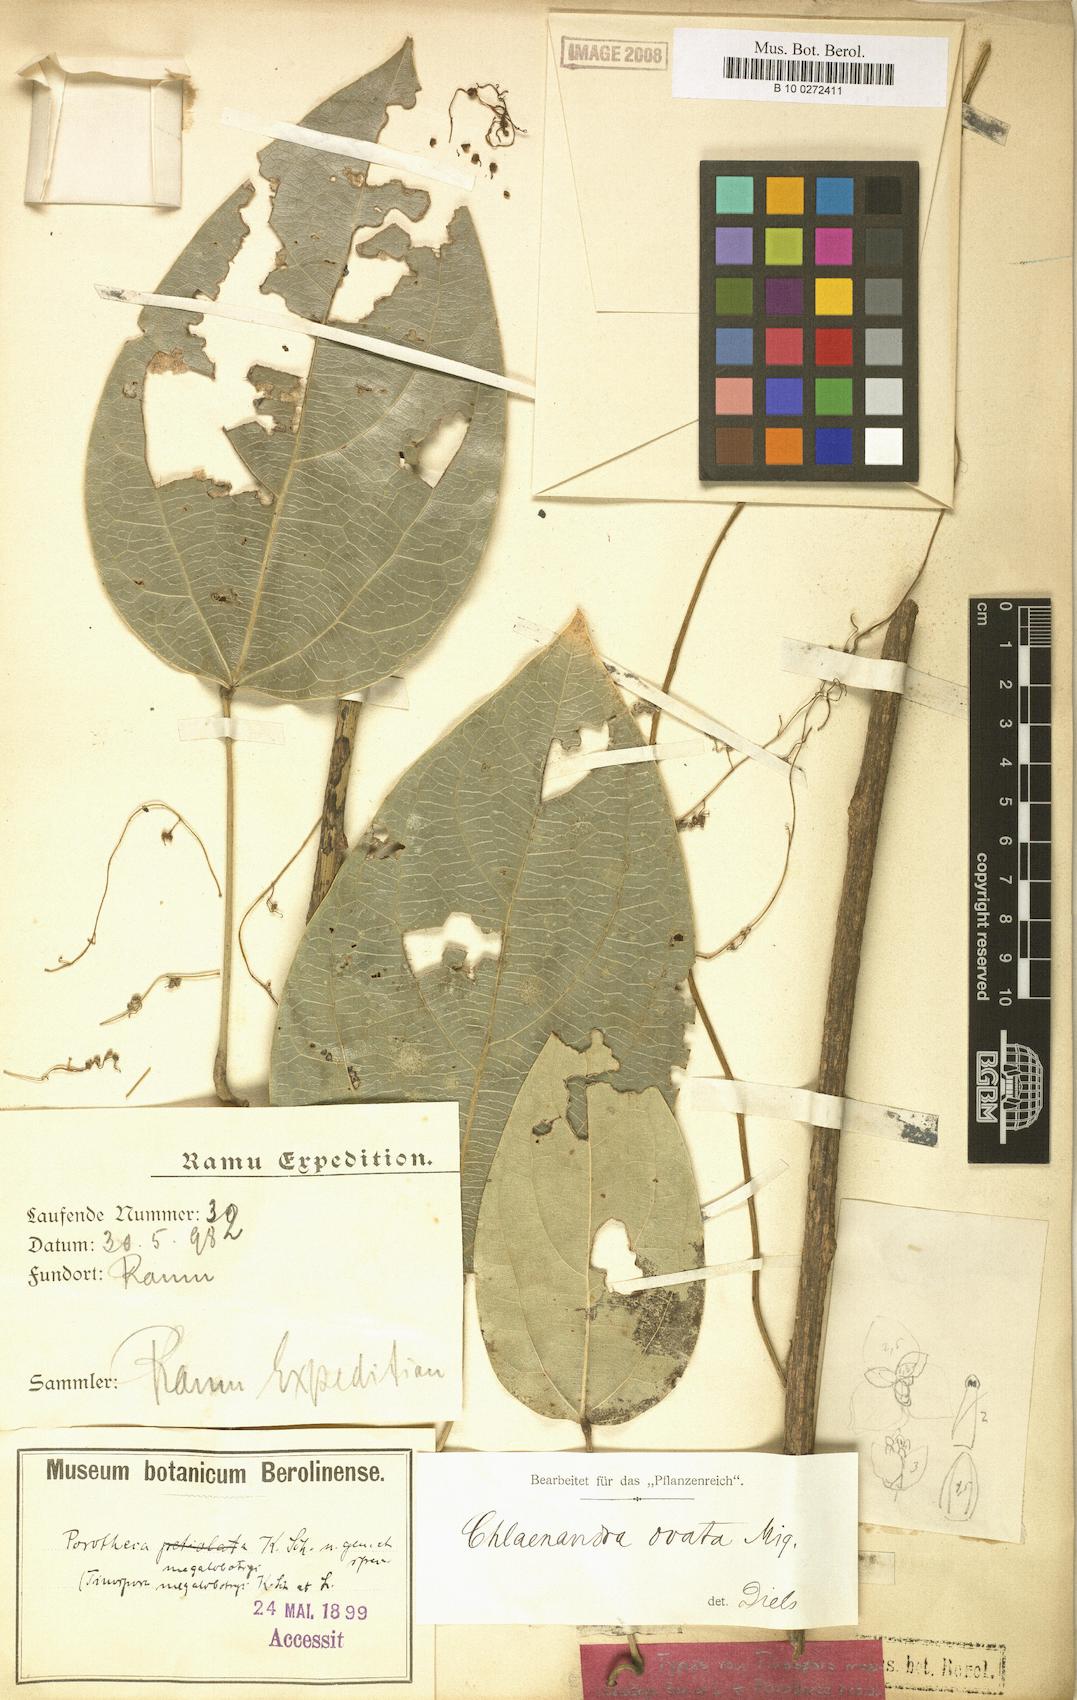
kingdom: Plantae
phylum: Tracheophyta
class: Magnoliopsida
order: Ranunculales
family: Menispermaceae
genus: Chlaenandra
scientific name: Chlaenandra ovata
